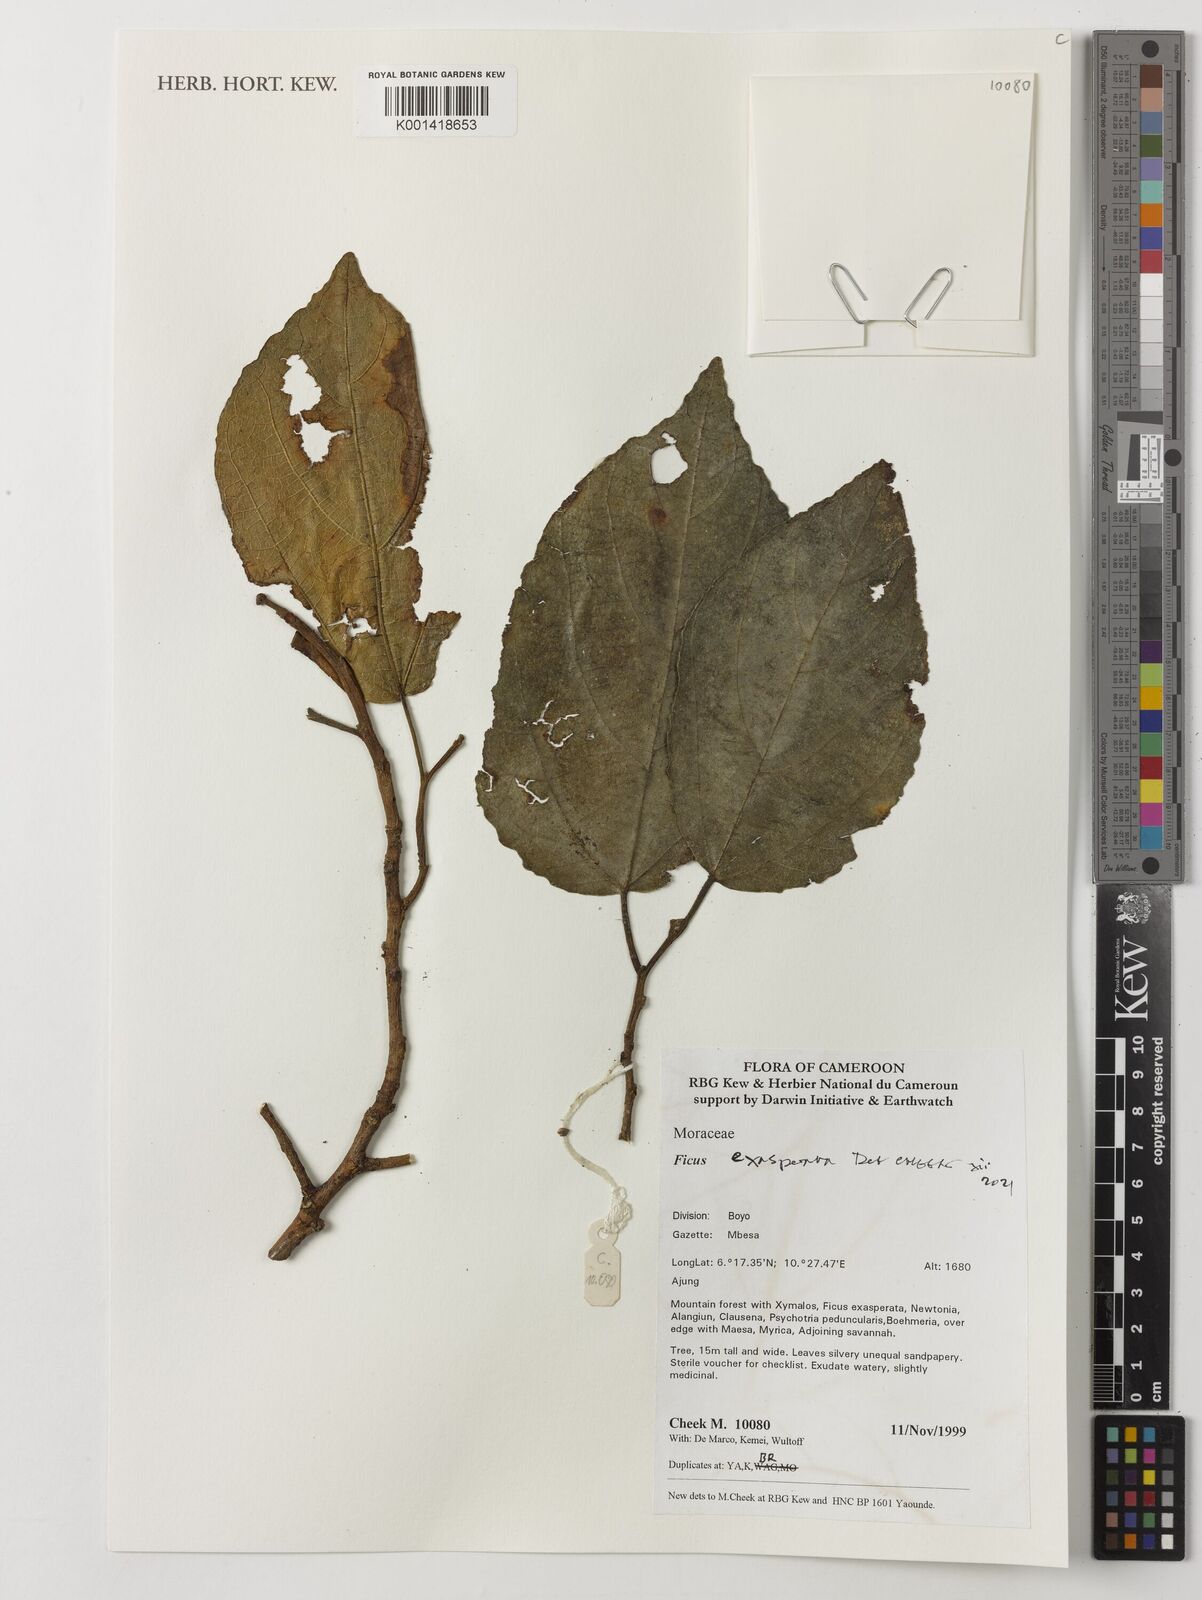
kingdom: Plantae
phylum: Tracheophyta
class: Magnoliopsida
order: Rosales
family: Moraceae
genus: Ficus
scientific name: Ficus exasperata
